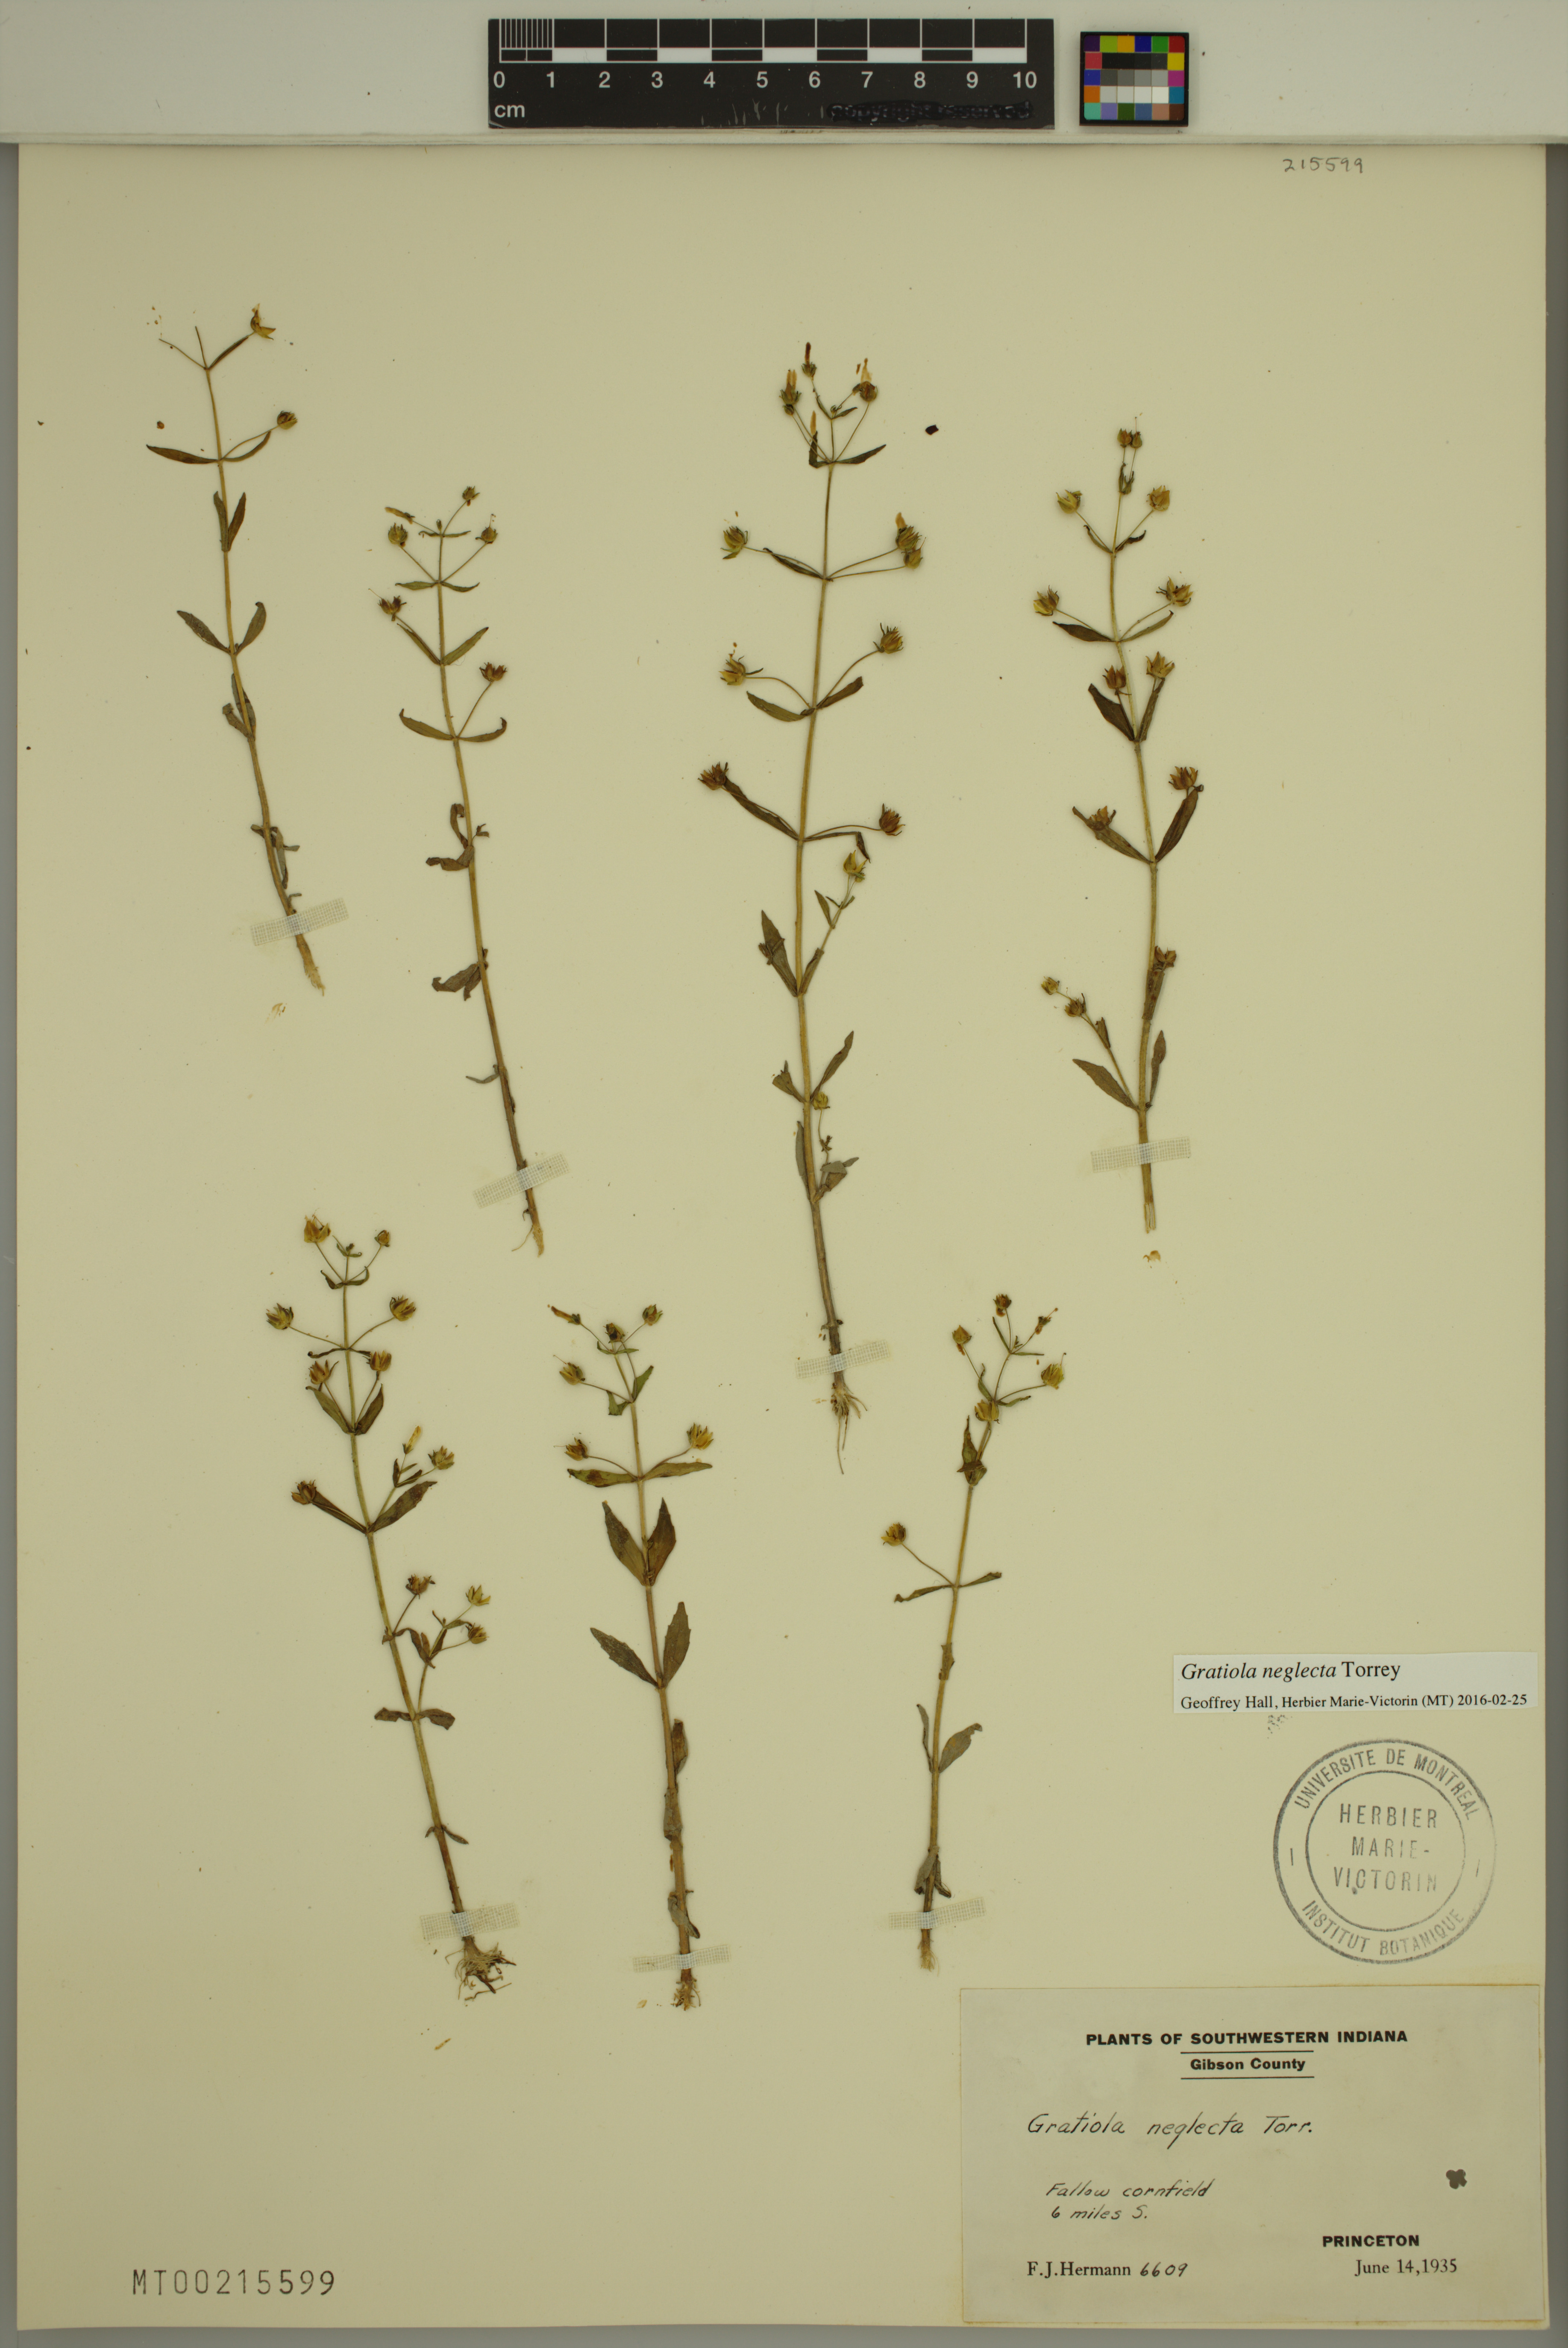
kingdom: Plantae
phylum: Tracheophyta
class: Magnoliopsida
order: Lamiales
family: Plantaginaceae
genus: Gratiola
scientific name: Gratiola neglecta
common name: American hedge-hyssop
